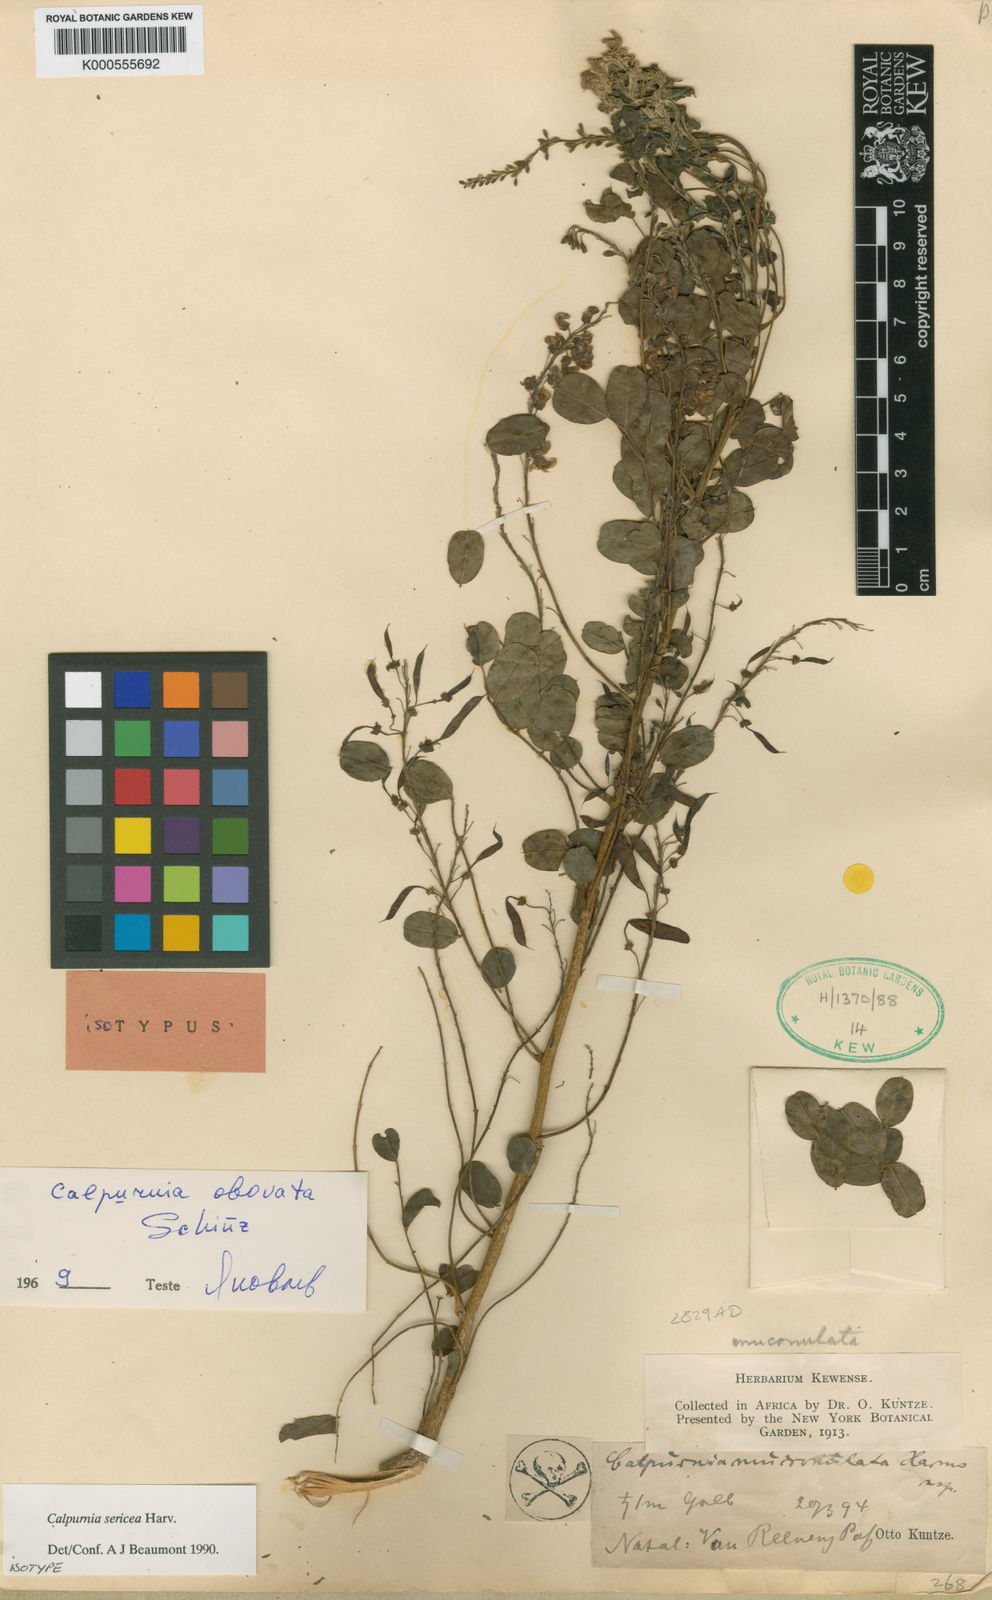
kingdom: Plantae
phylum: Tracheophyta
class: Magnoliopsida
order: Fabales
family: Fabaceae
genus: Calpurnia
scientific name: Calpurnia sericea
